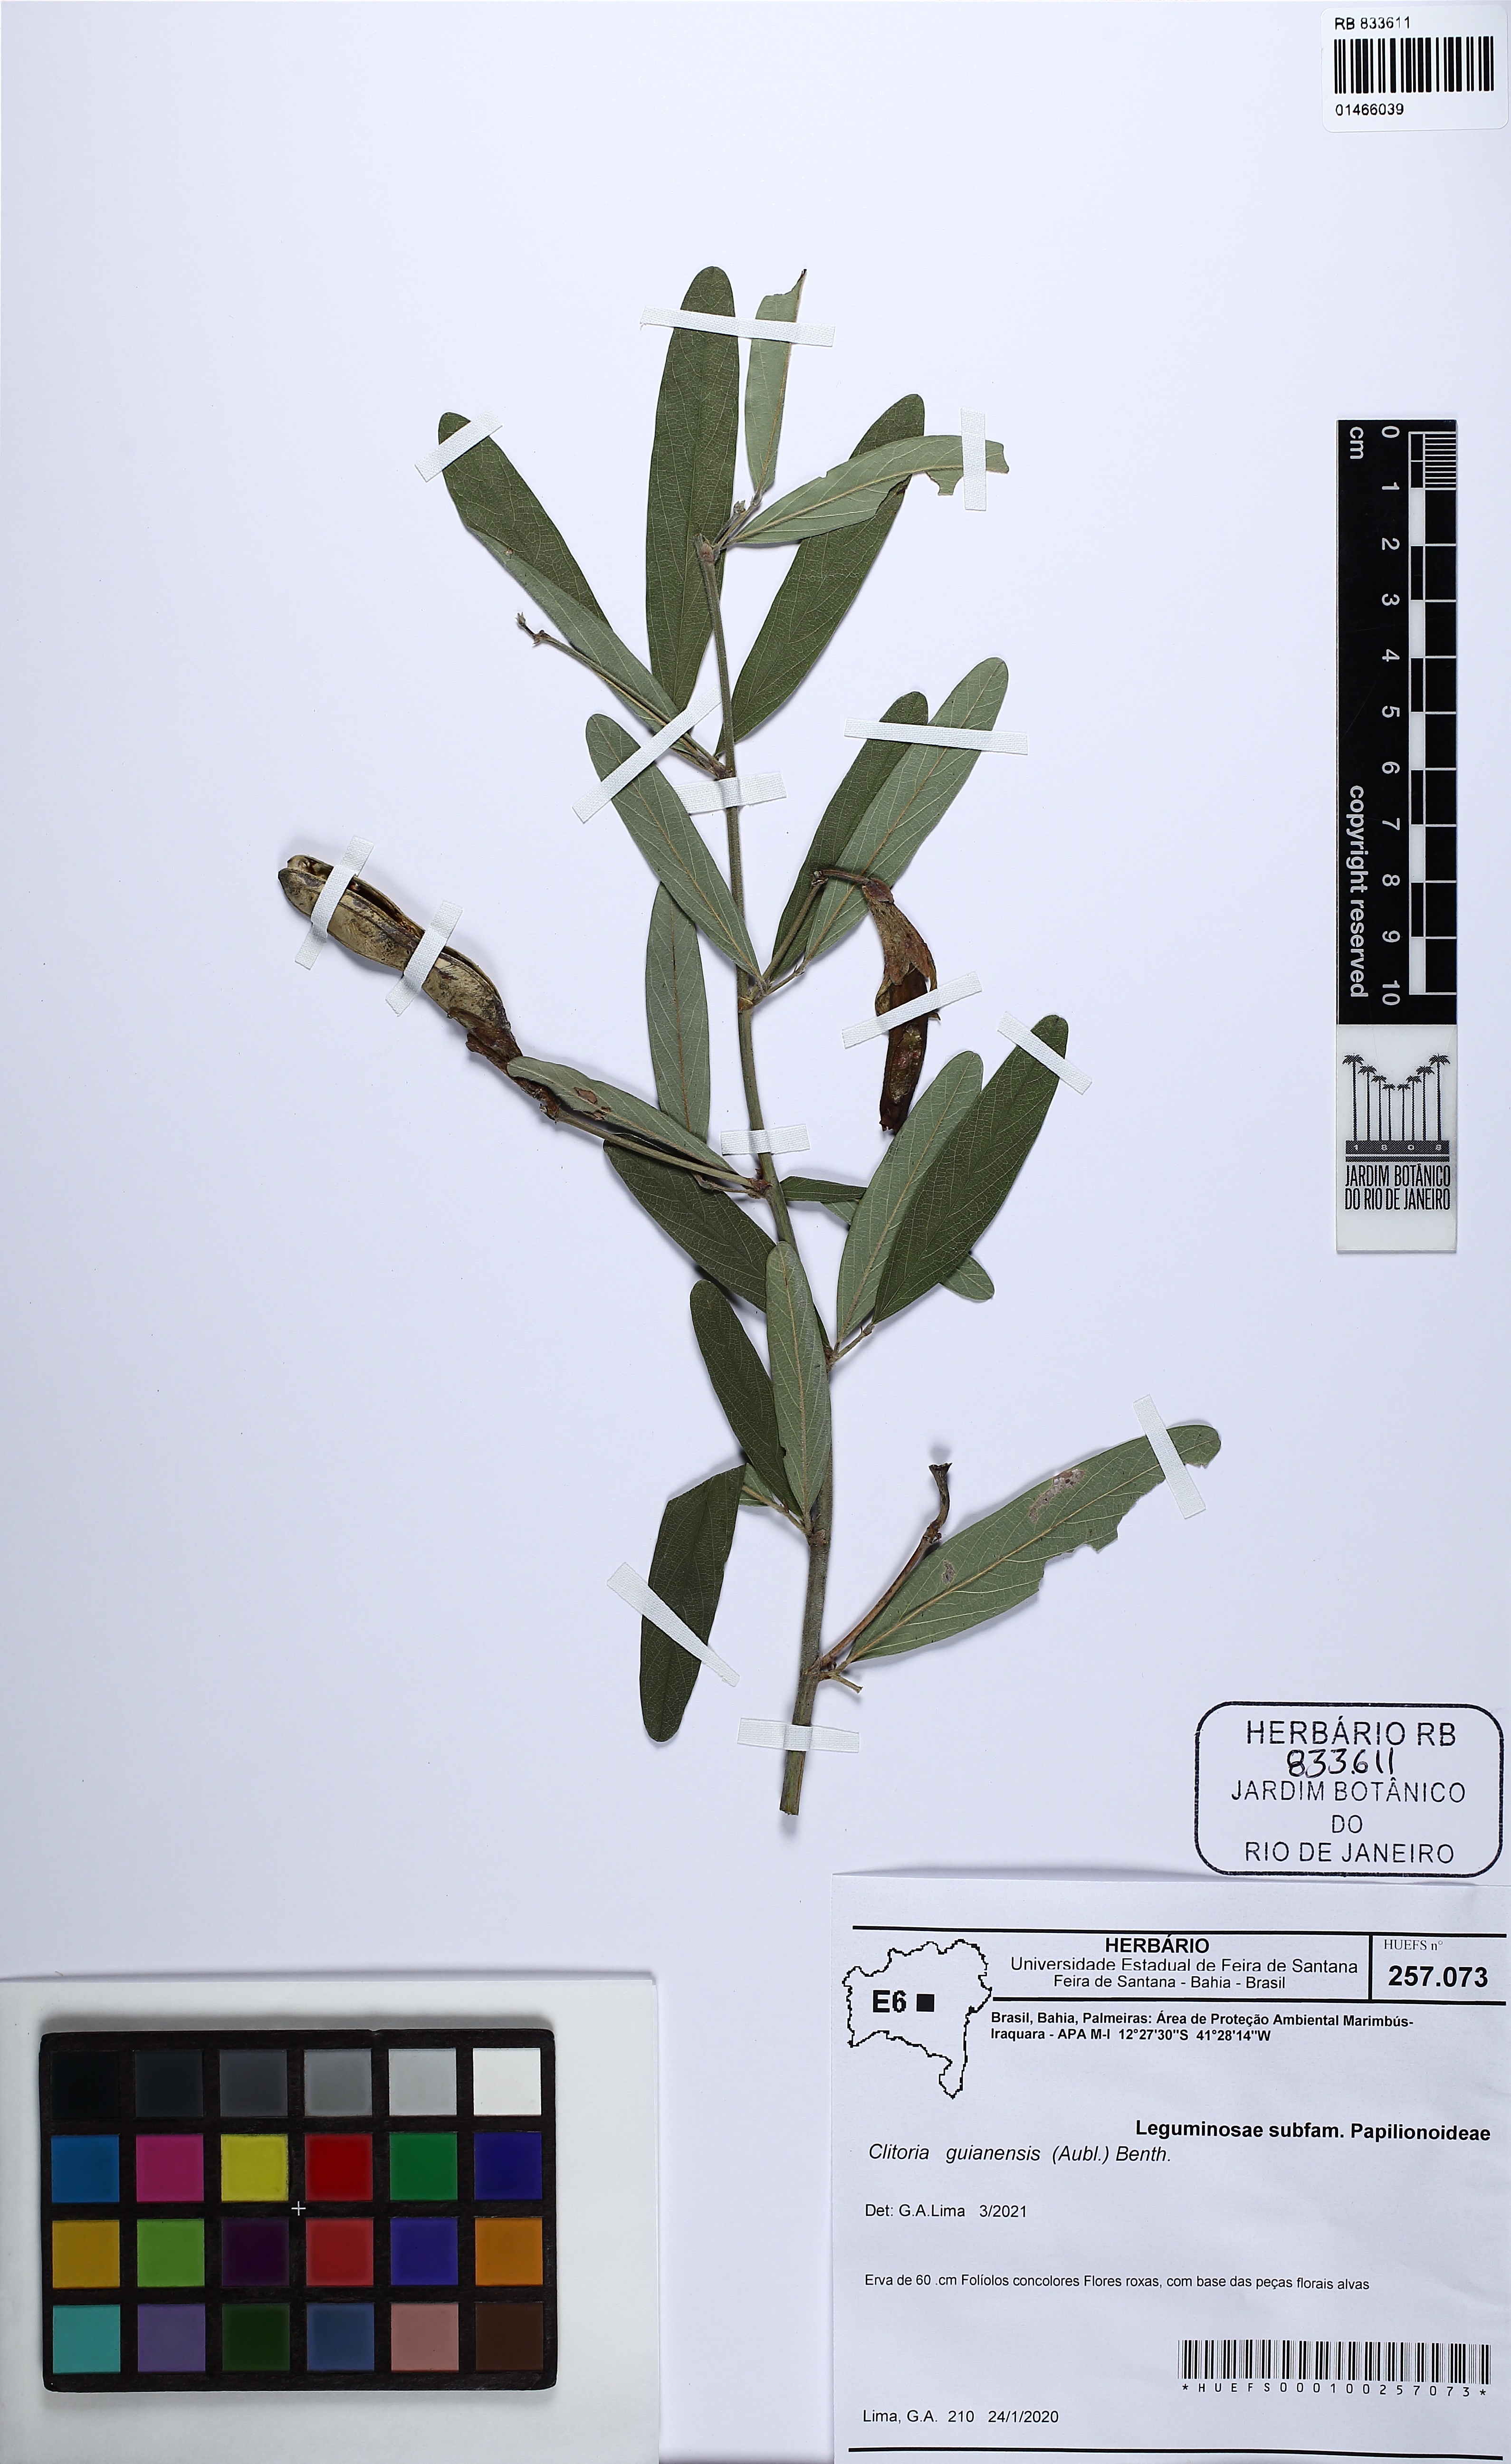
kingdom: Plantae
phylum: Tracheophyta
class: Magnoliopsida
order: Fabales
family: Fabaceae
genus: Clitoria
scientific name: Clitoria guianensis
